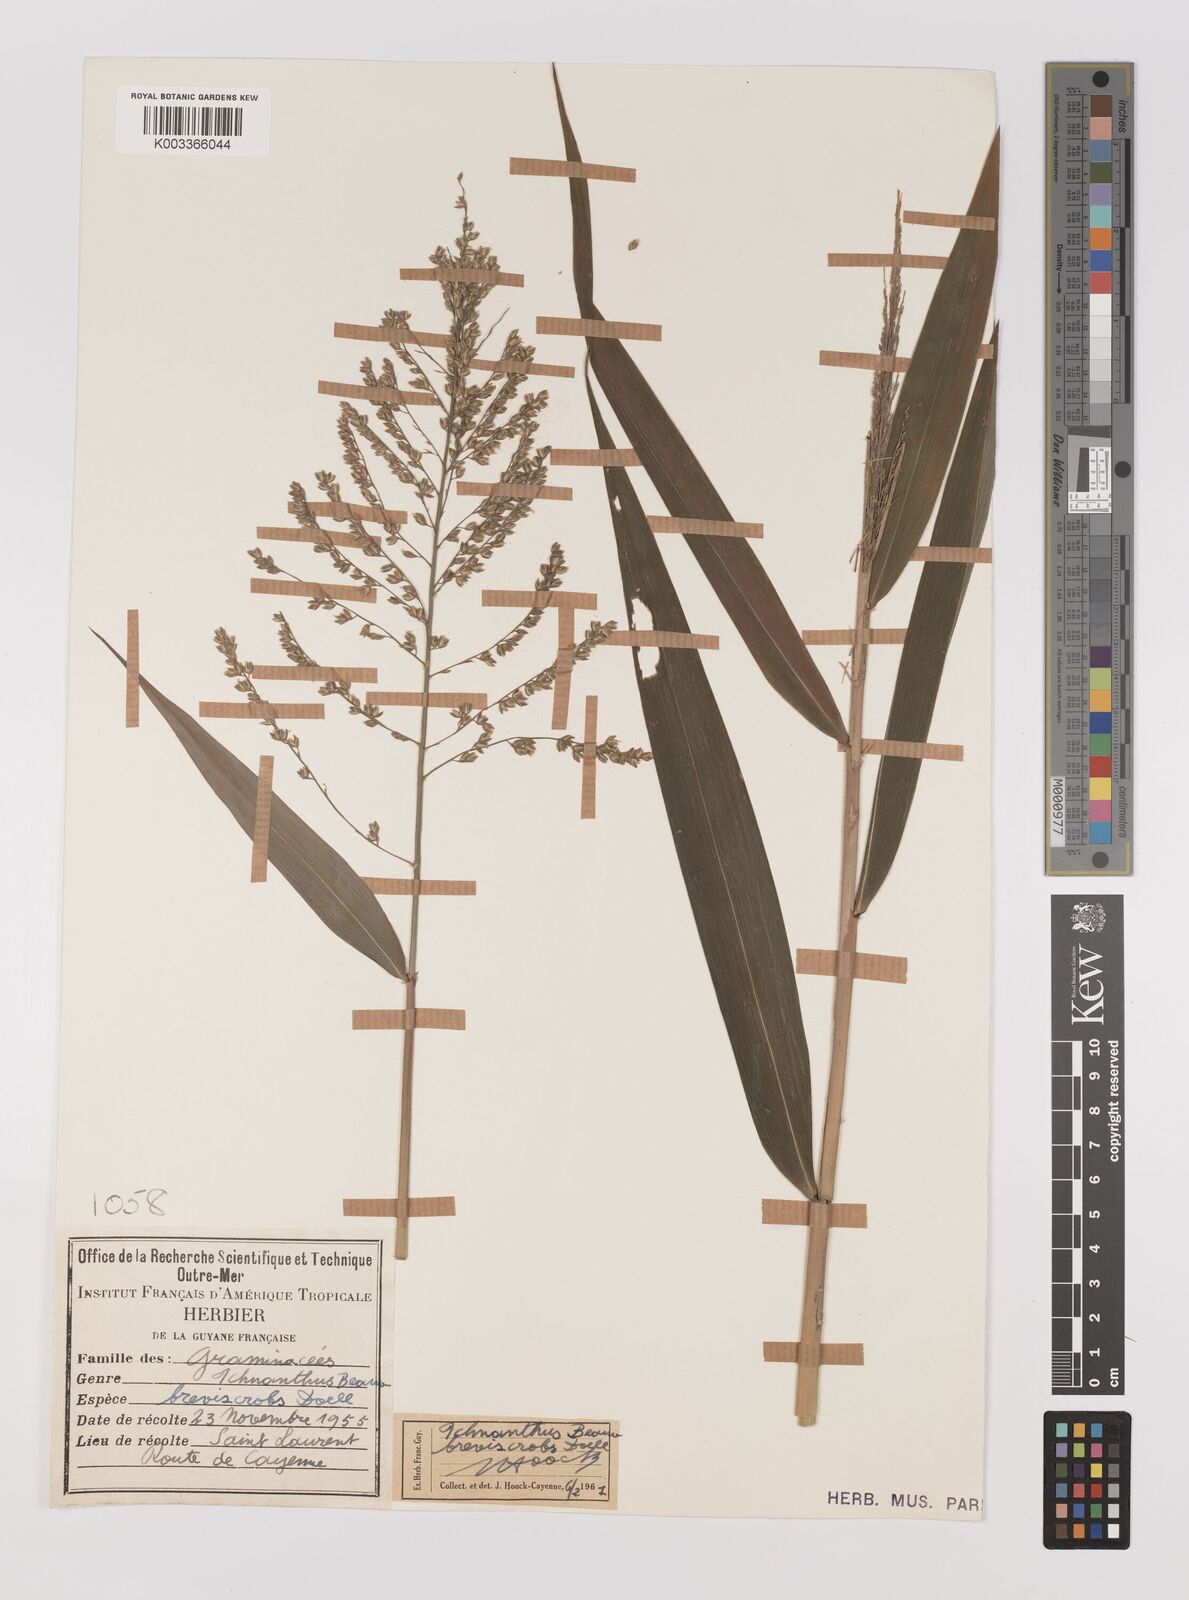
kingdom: Plantae
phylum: Tracheophyta
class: Liliopsida
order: Poales
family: Poaceae
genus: Ichnanthus
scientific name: Ichnanthus breviscrobs
